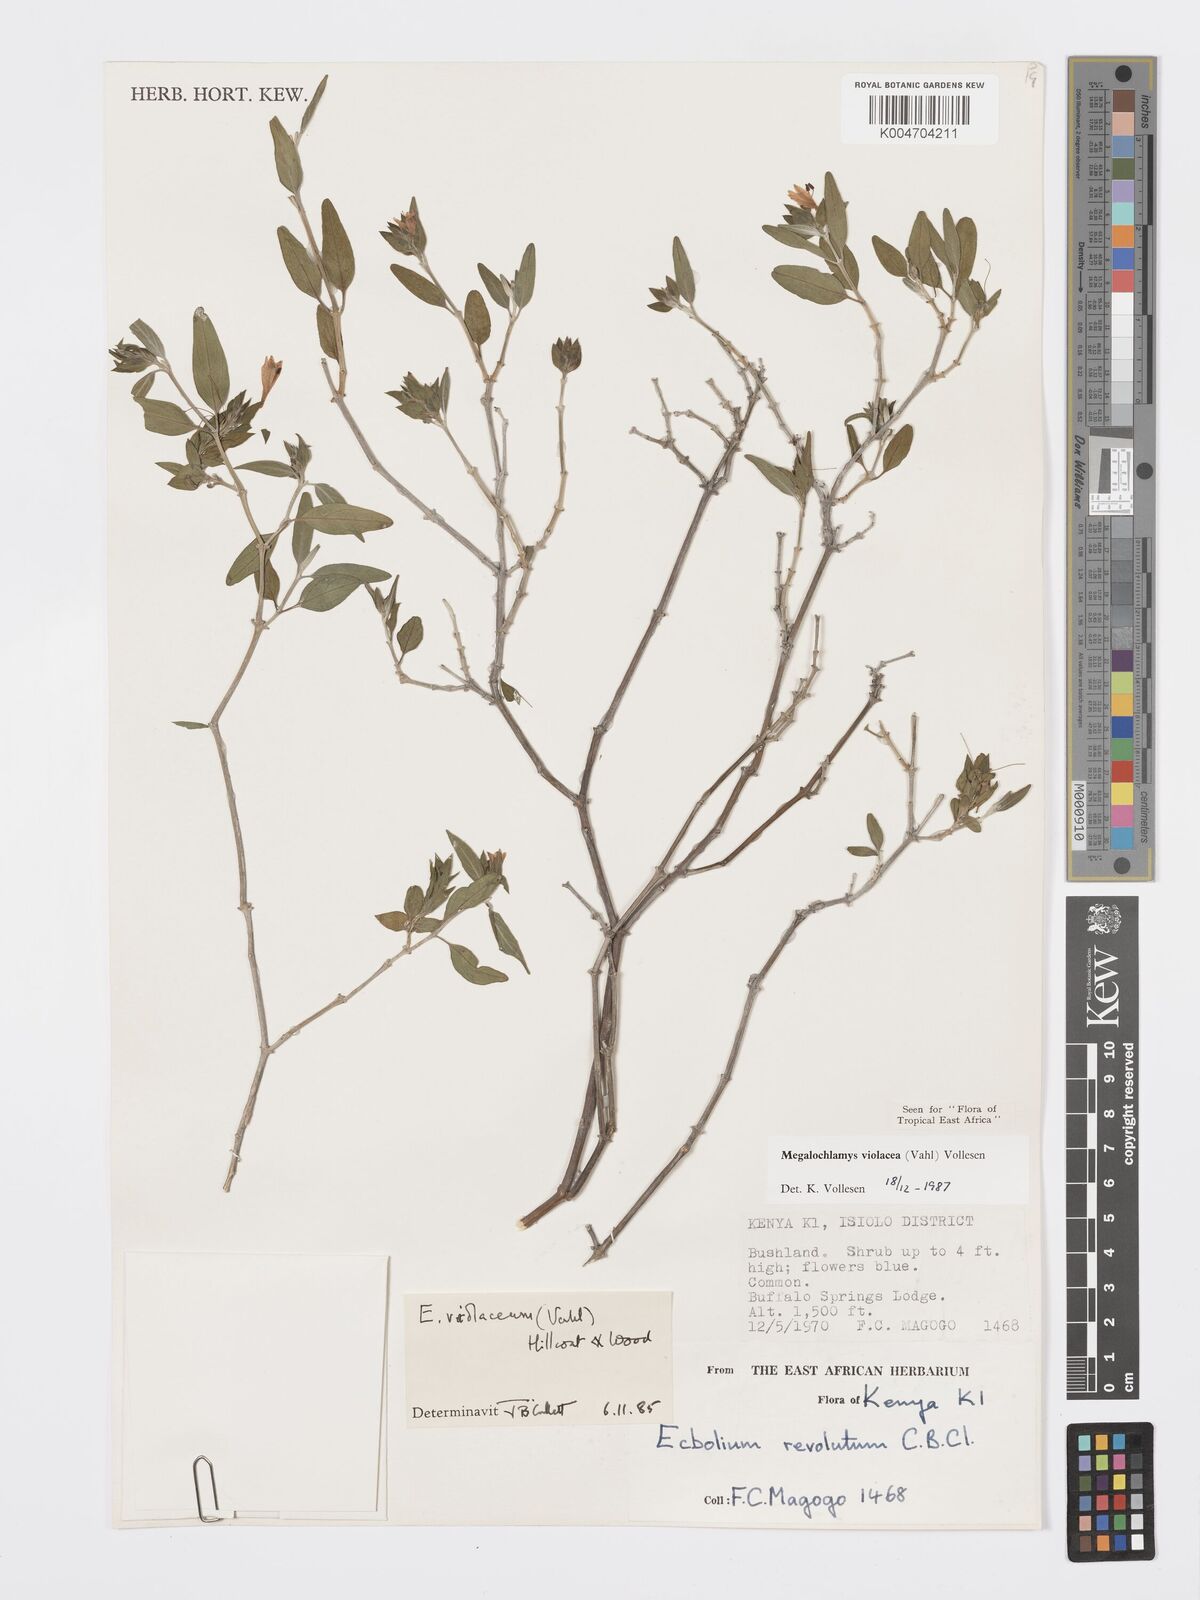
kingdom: Plantae
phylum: Tracheophyta
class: Magnoliopsida
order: Lamiales
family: Acanthaceae
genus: Megalochlamys
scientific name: Megalochlamys violacea
